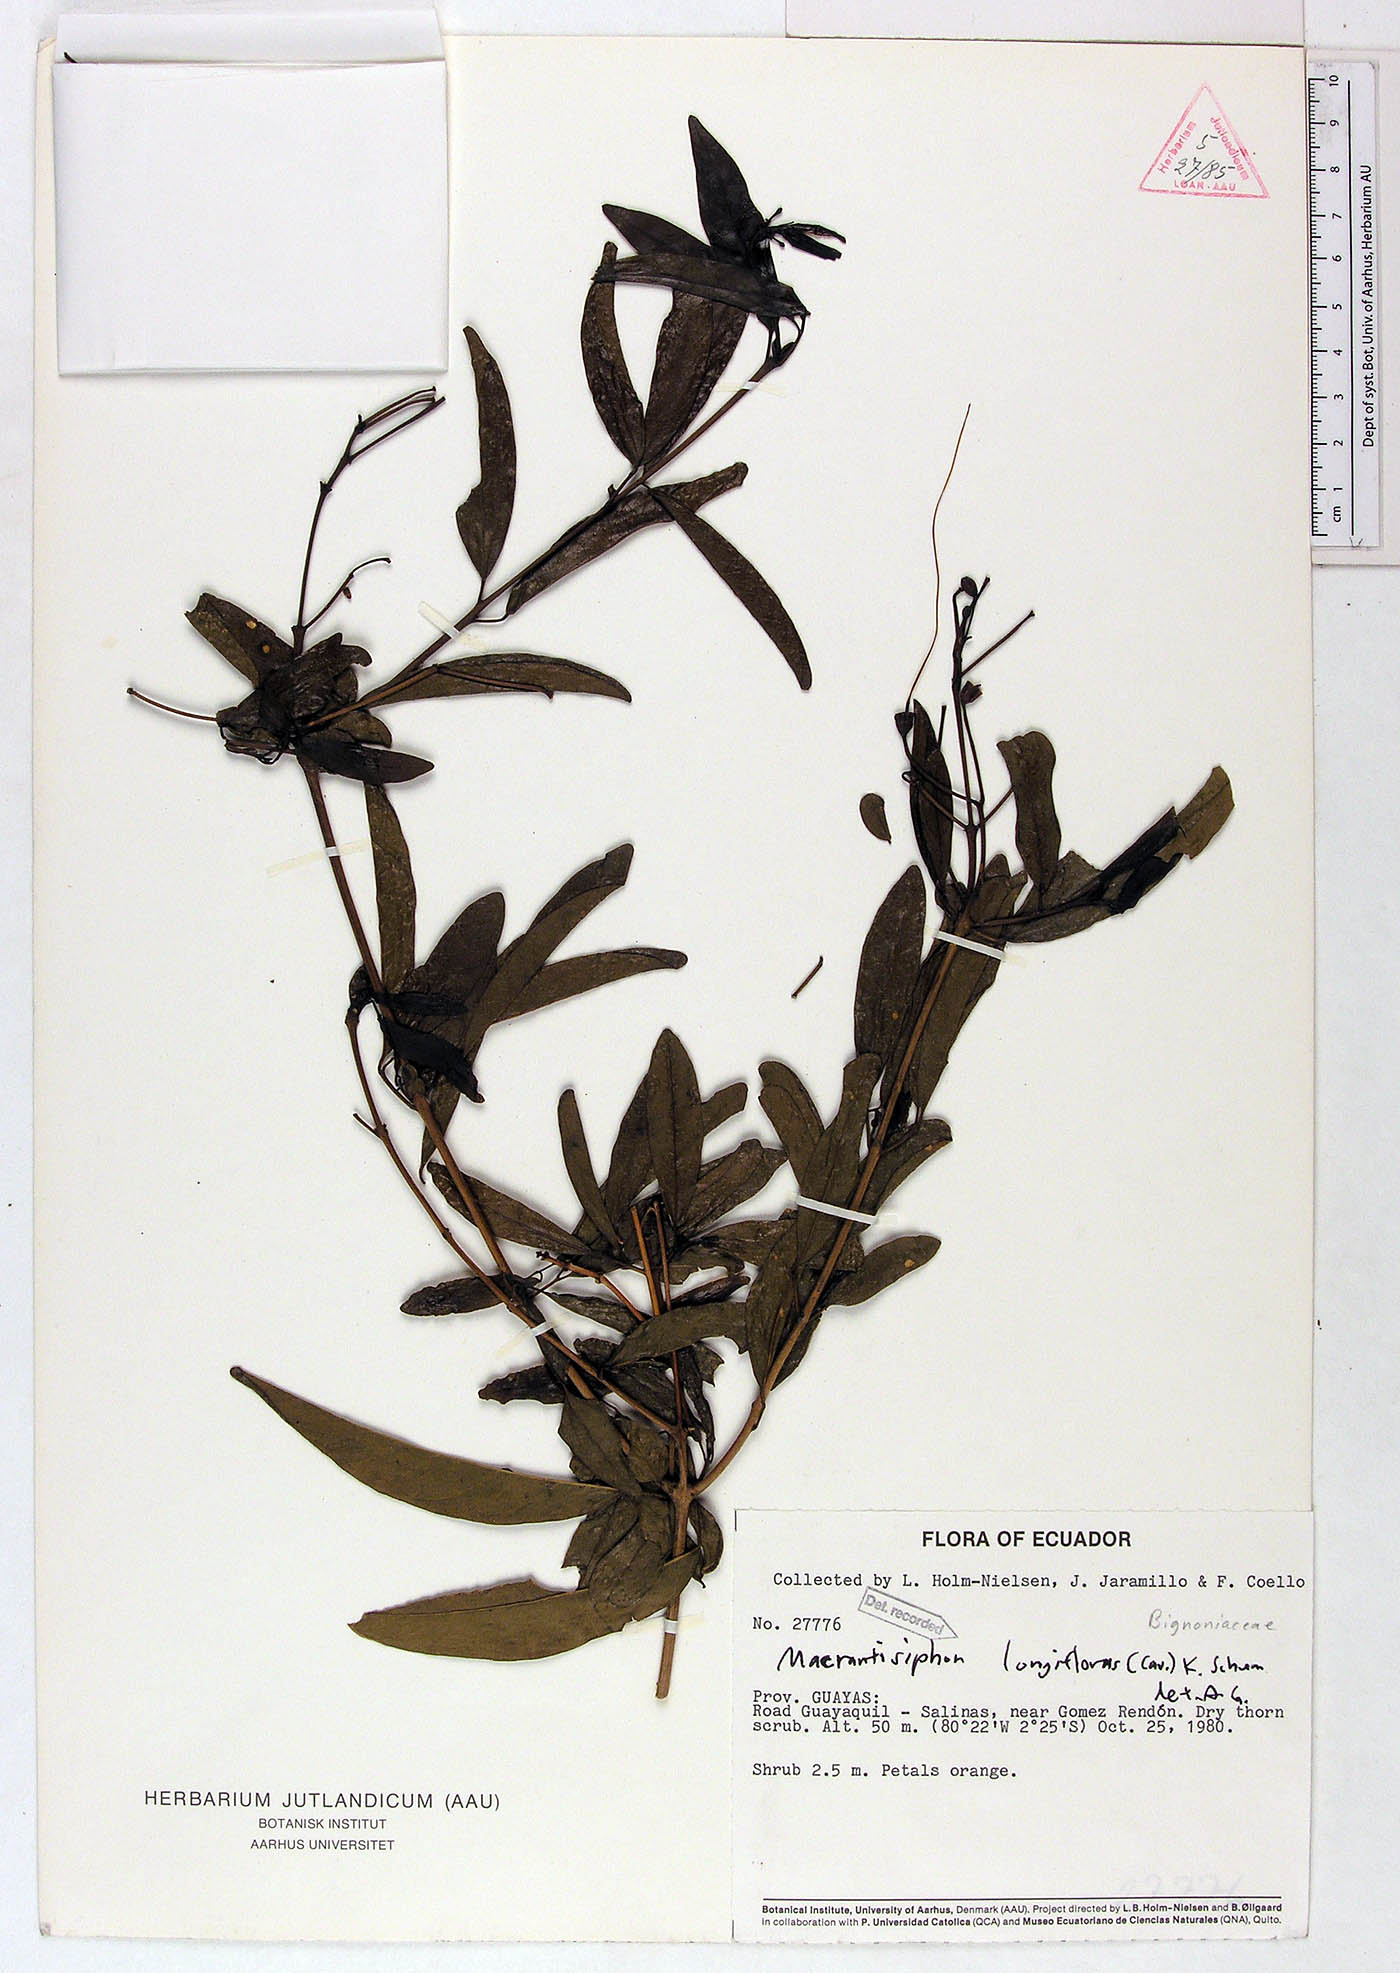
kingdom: Plantae
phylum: Tracheophyta
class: Magnoliopsida
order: Lamiales
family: Bignoniaceae
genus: Bignonia
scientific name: Bignonia longiflora
